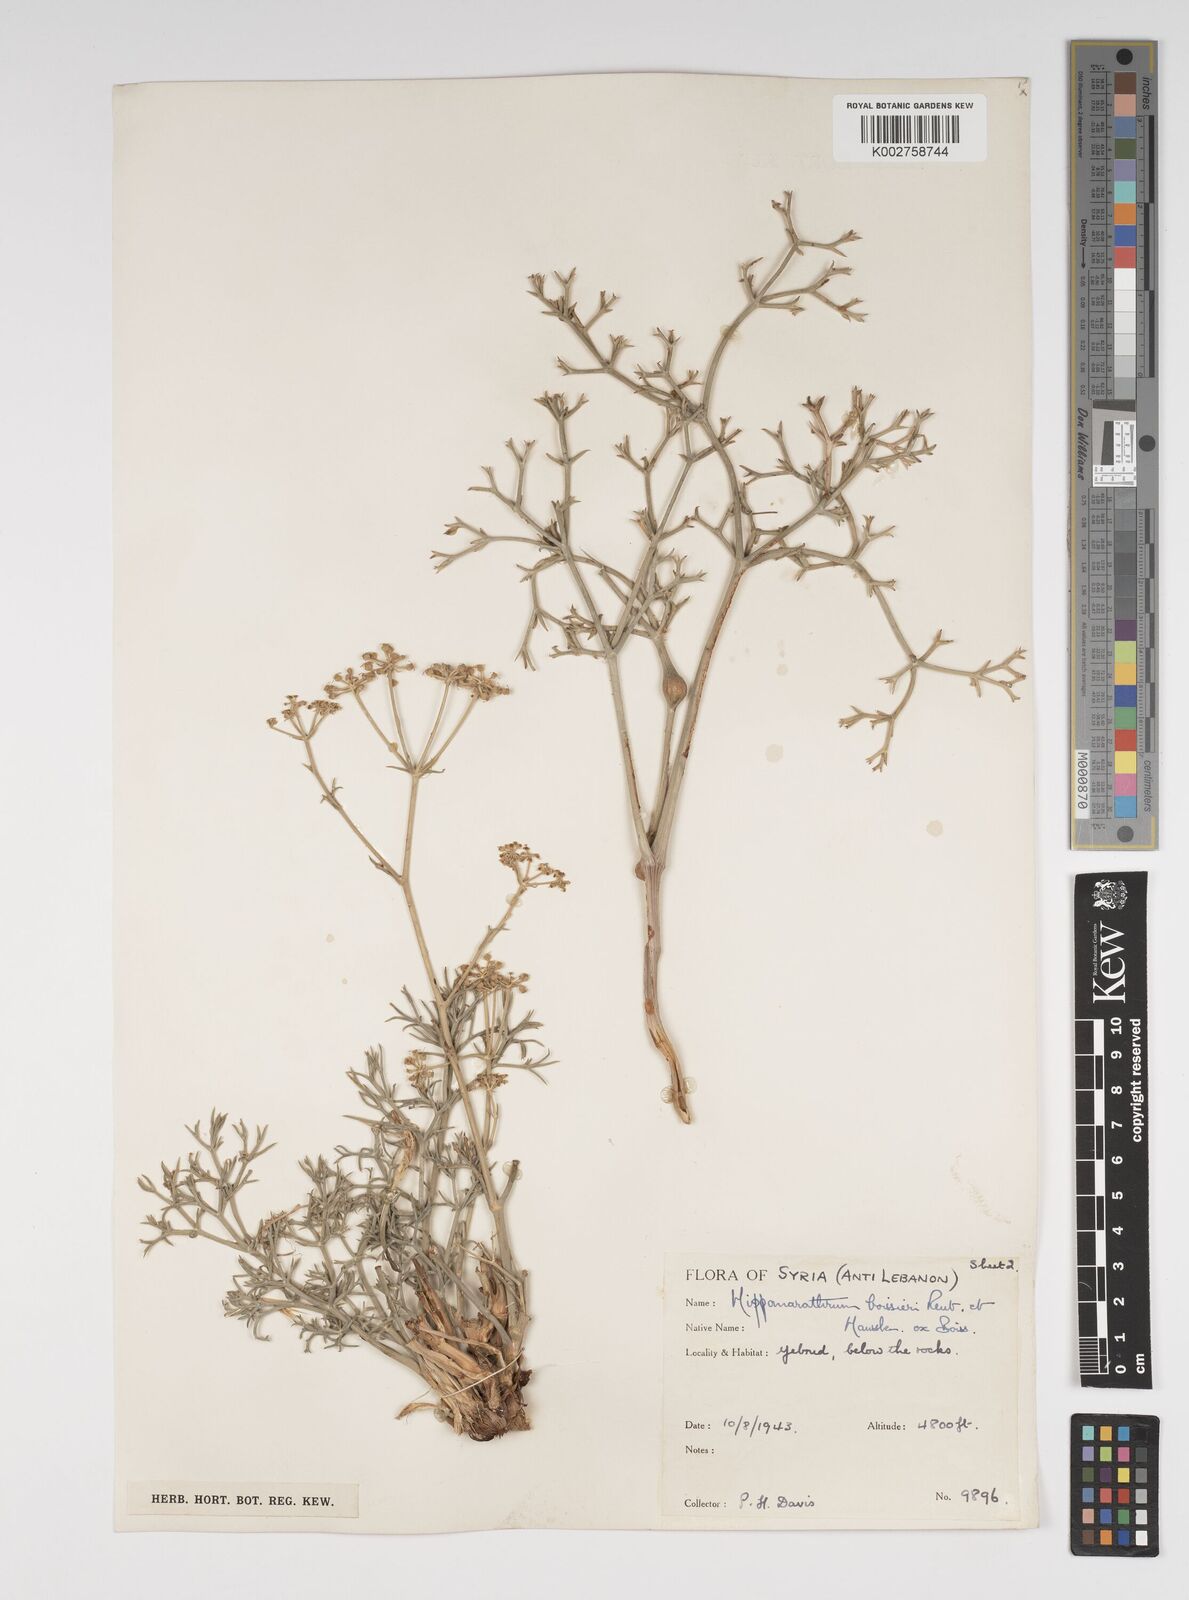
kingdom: Plantae
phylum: Tracheophyta
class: Magnoliopsida
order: Apiales
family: Apiaceae
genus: Cachrys
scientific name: Cachrys boissieri
